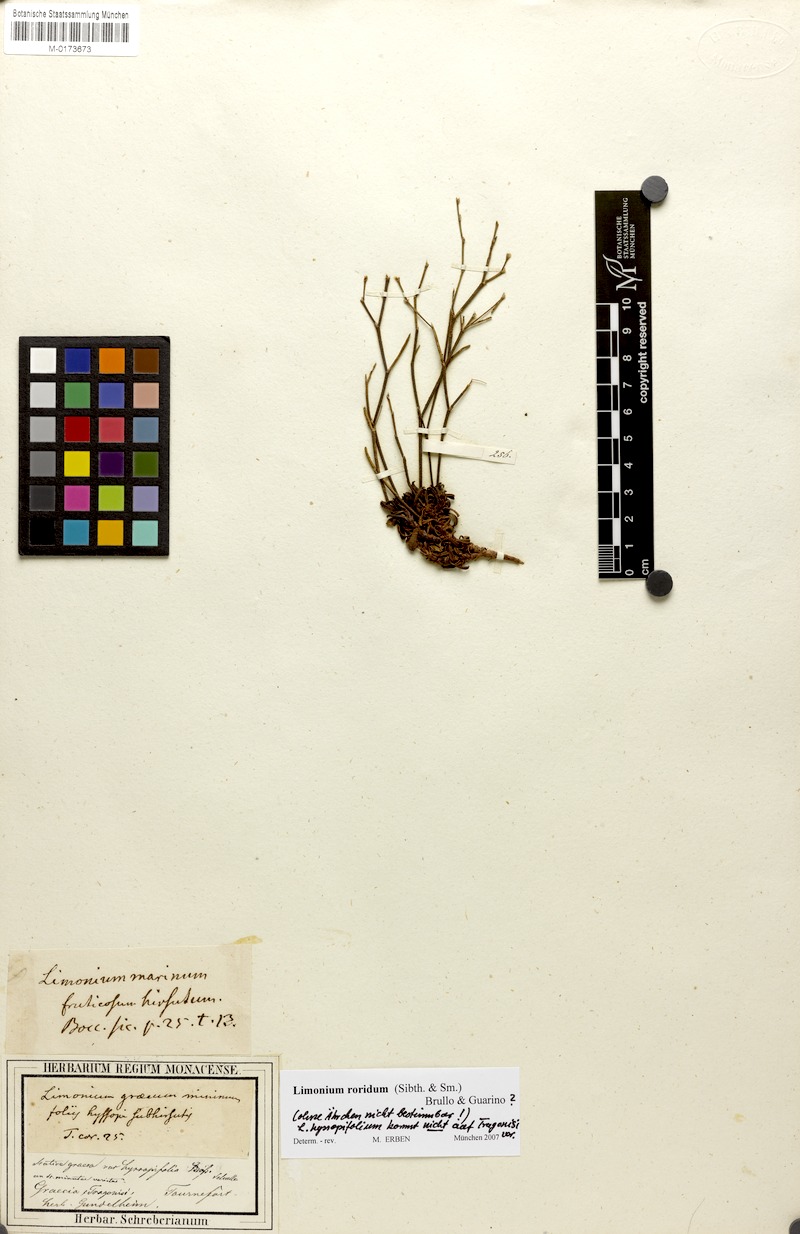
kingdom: Plantae
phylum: Tracheophyta
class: Magnoliopsida
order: Caryophyllales
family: Plumbaginaceae
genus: Limonium
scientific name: Limonium roridum
